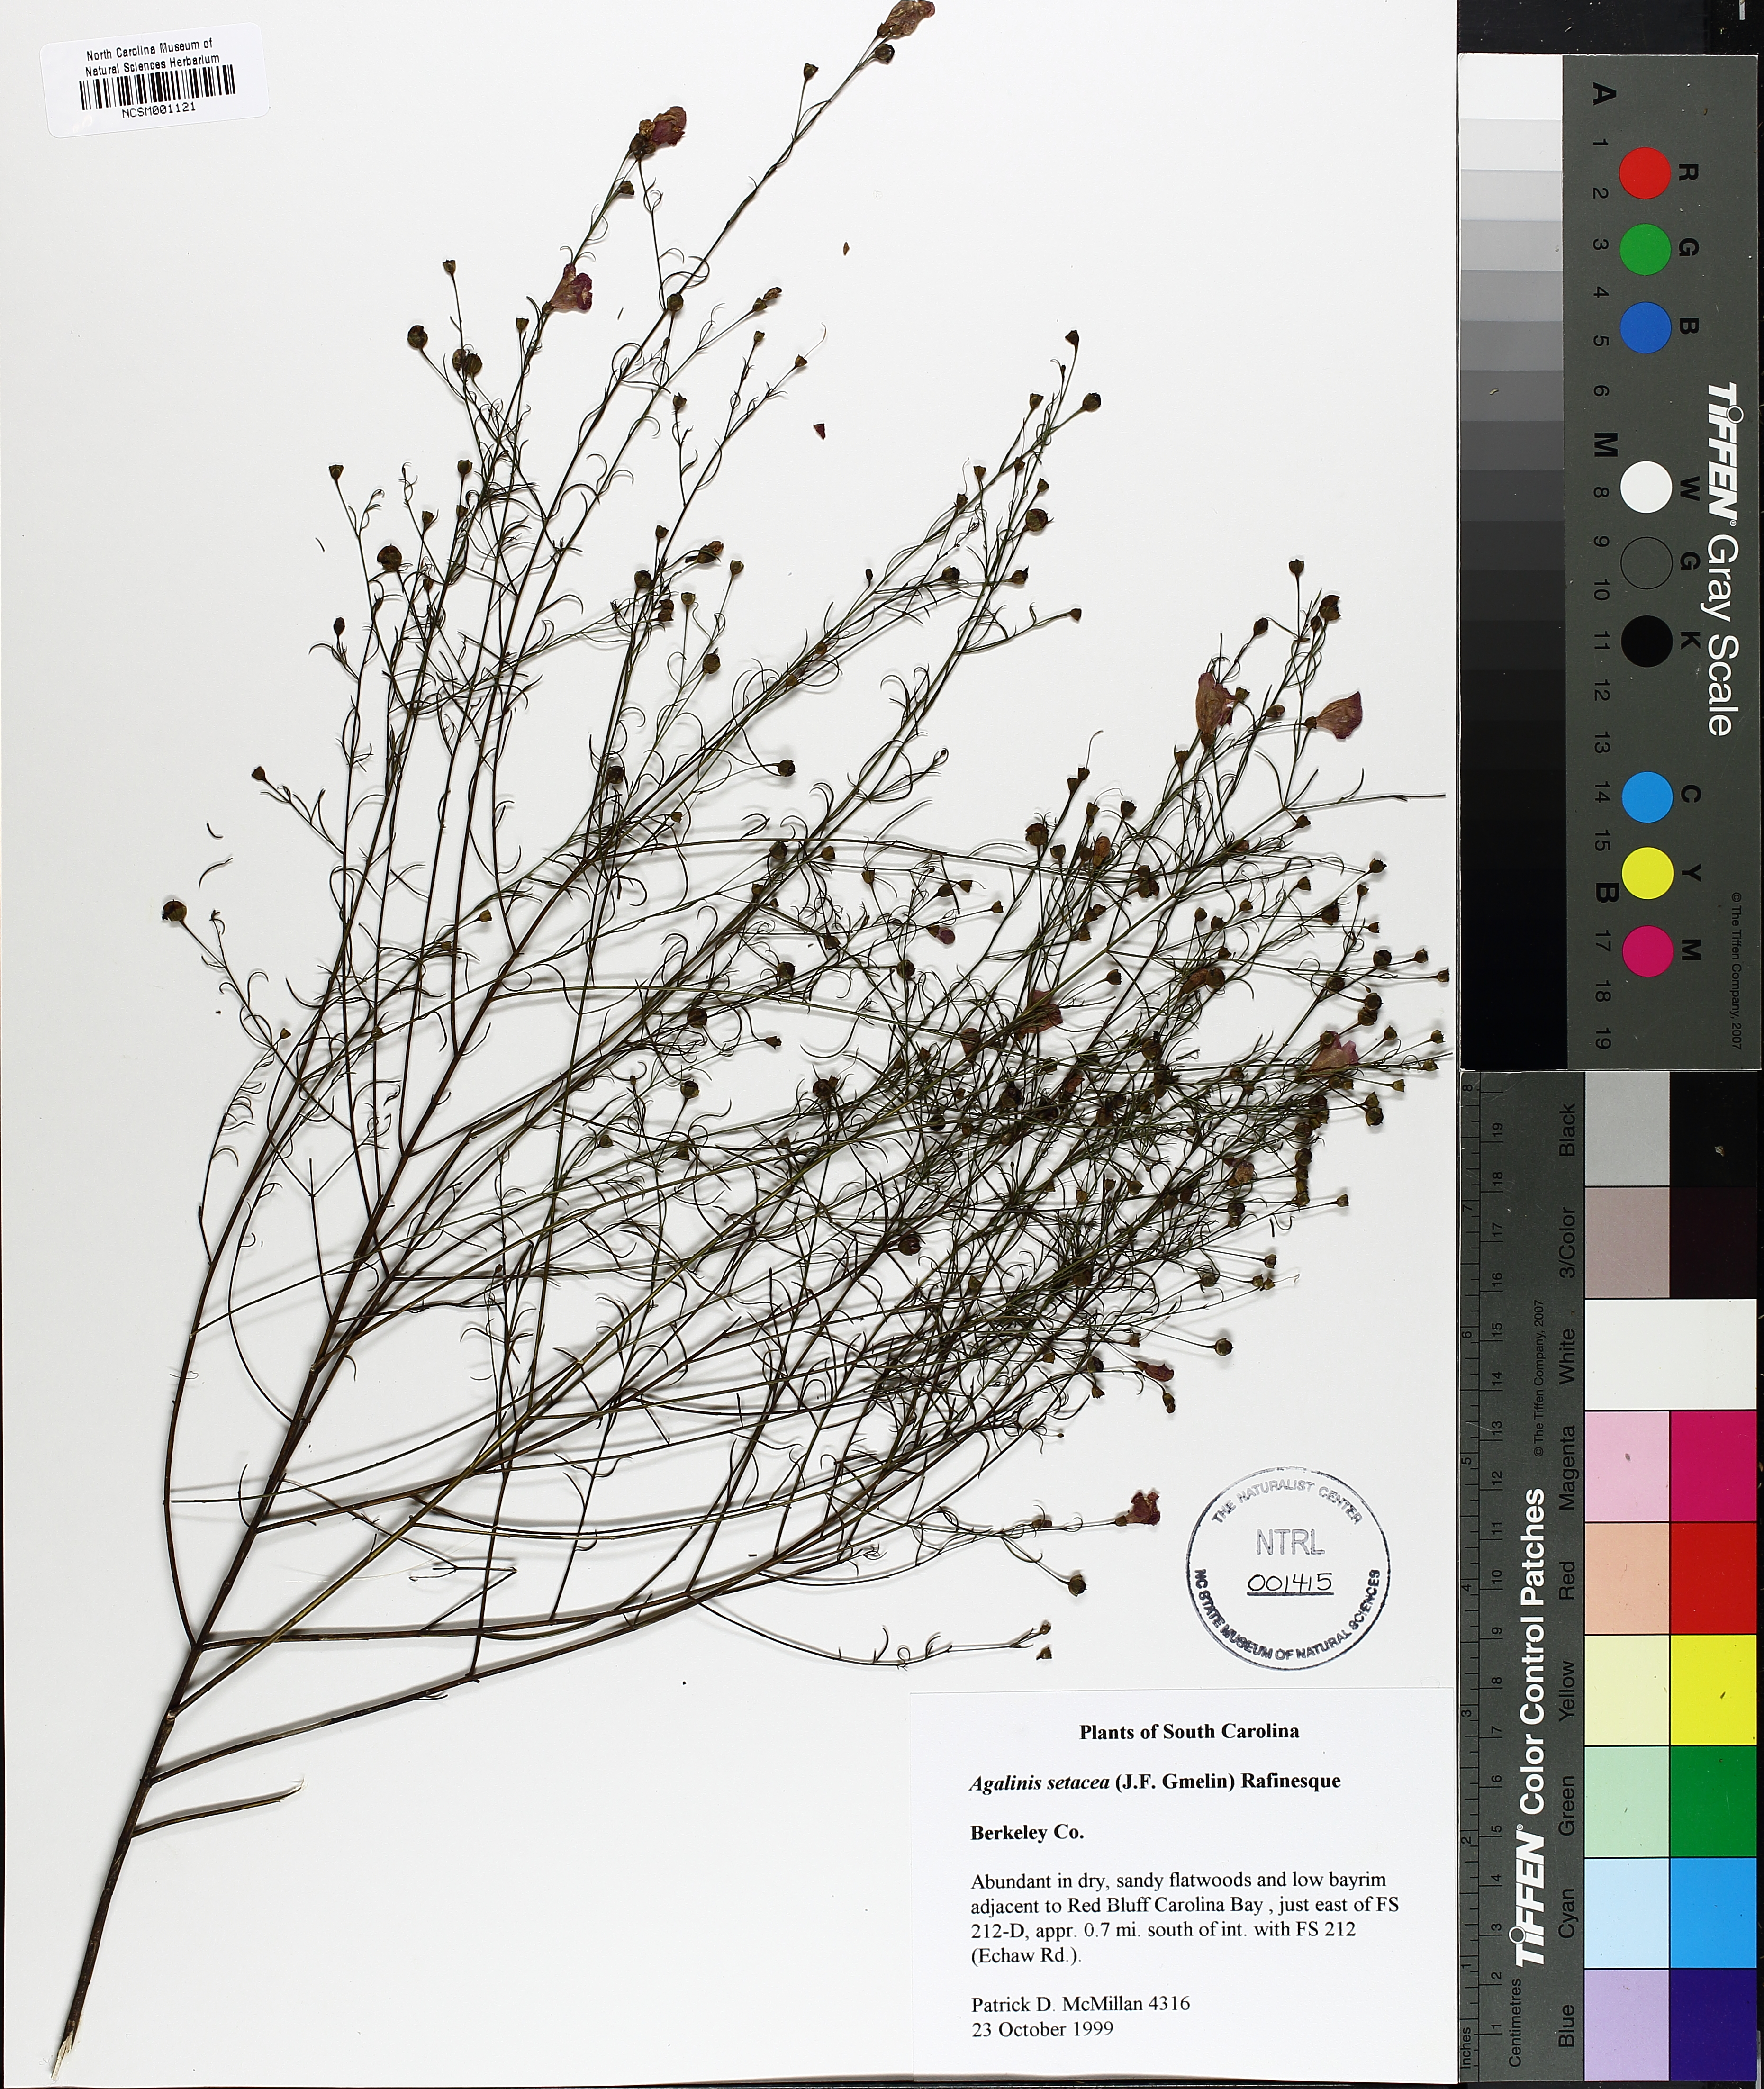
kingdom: Plantae
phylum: Tracheophyta
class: Magnoliopsida
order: Lamiales
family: Orobanchaceae
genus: Agalinis
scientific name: Agalinis setacea
